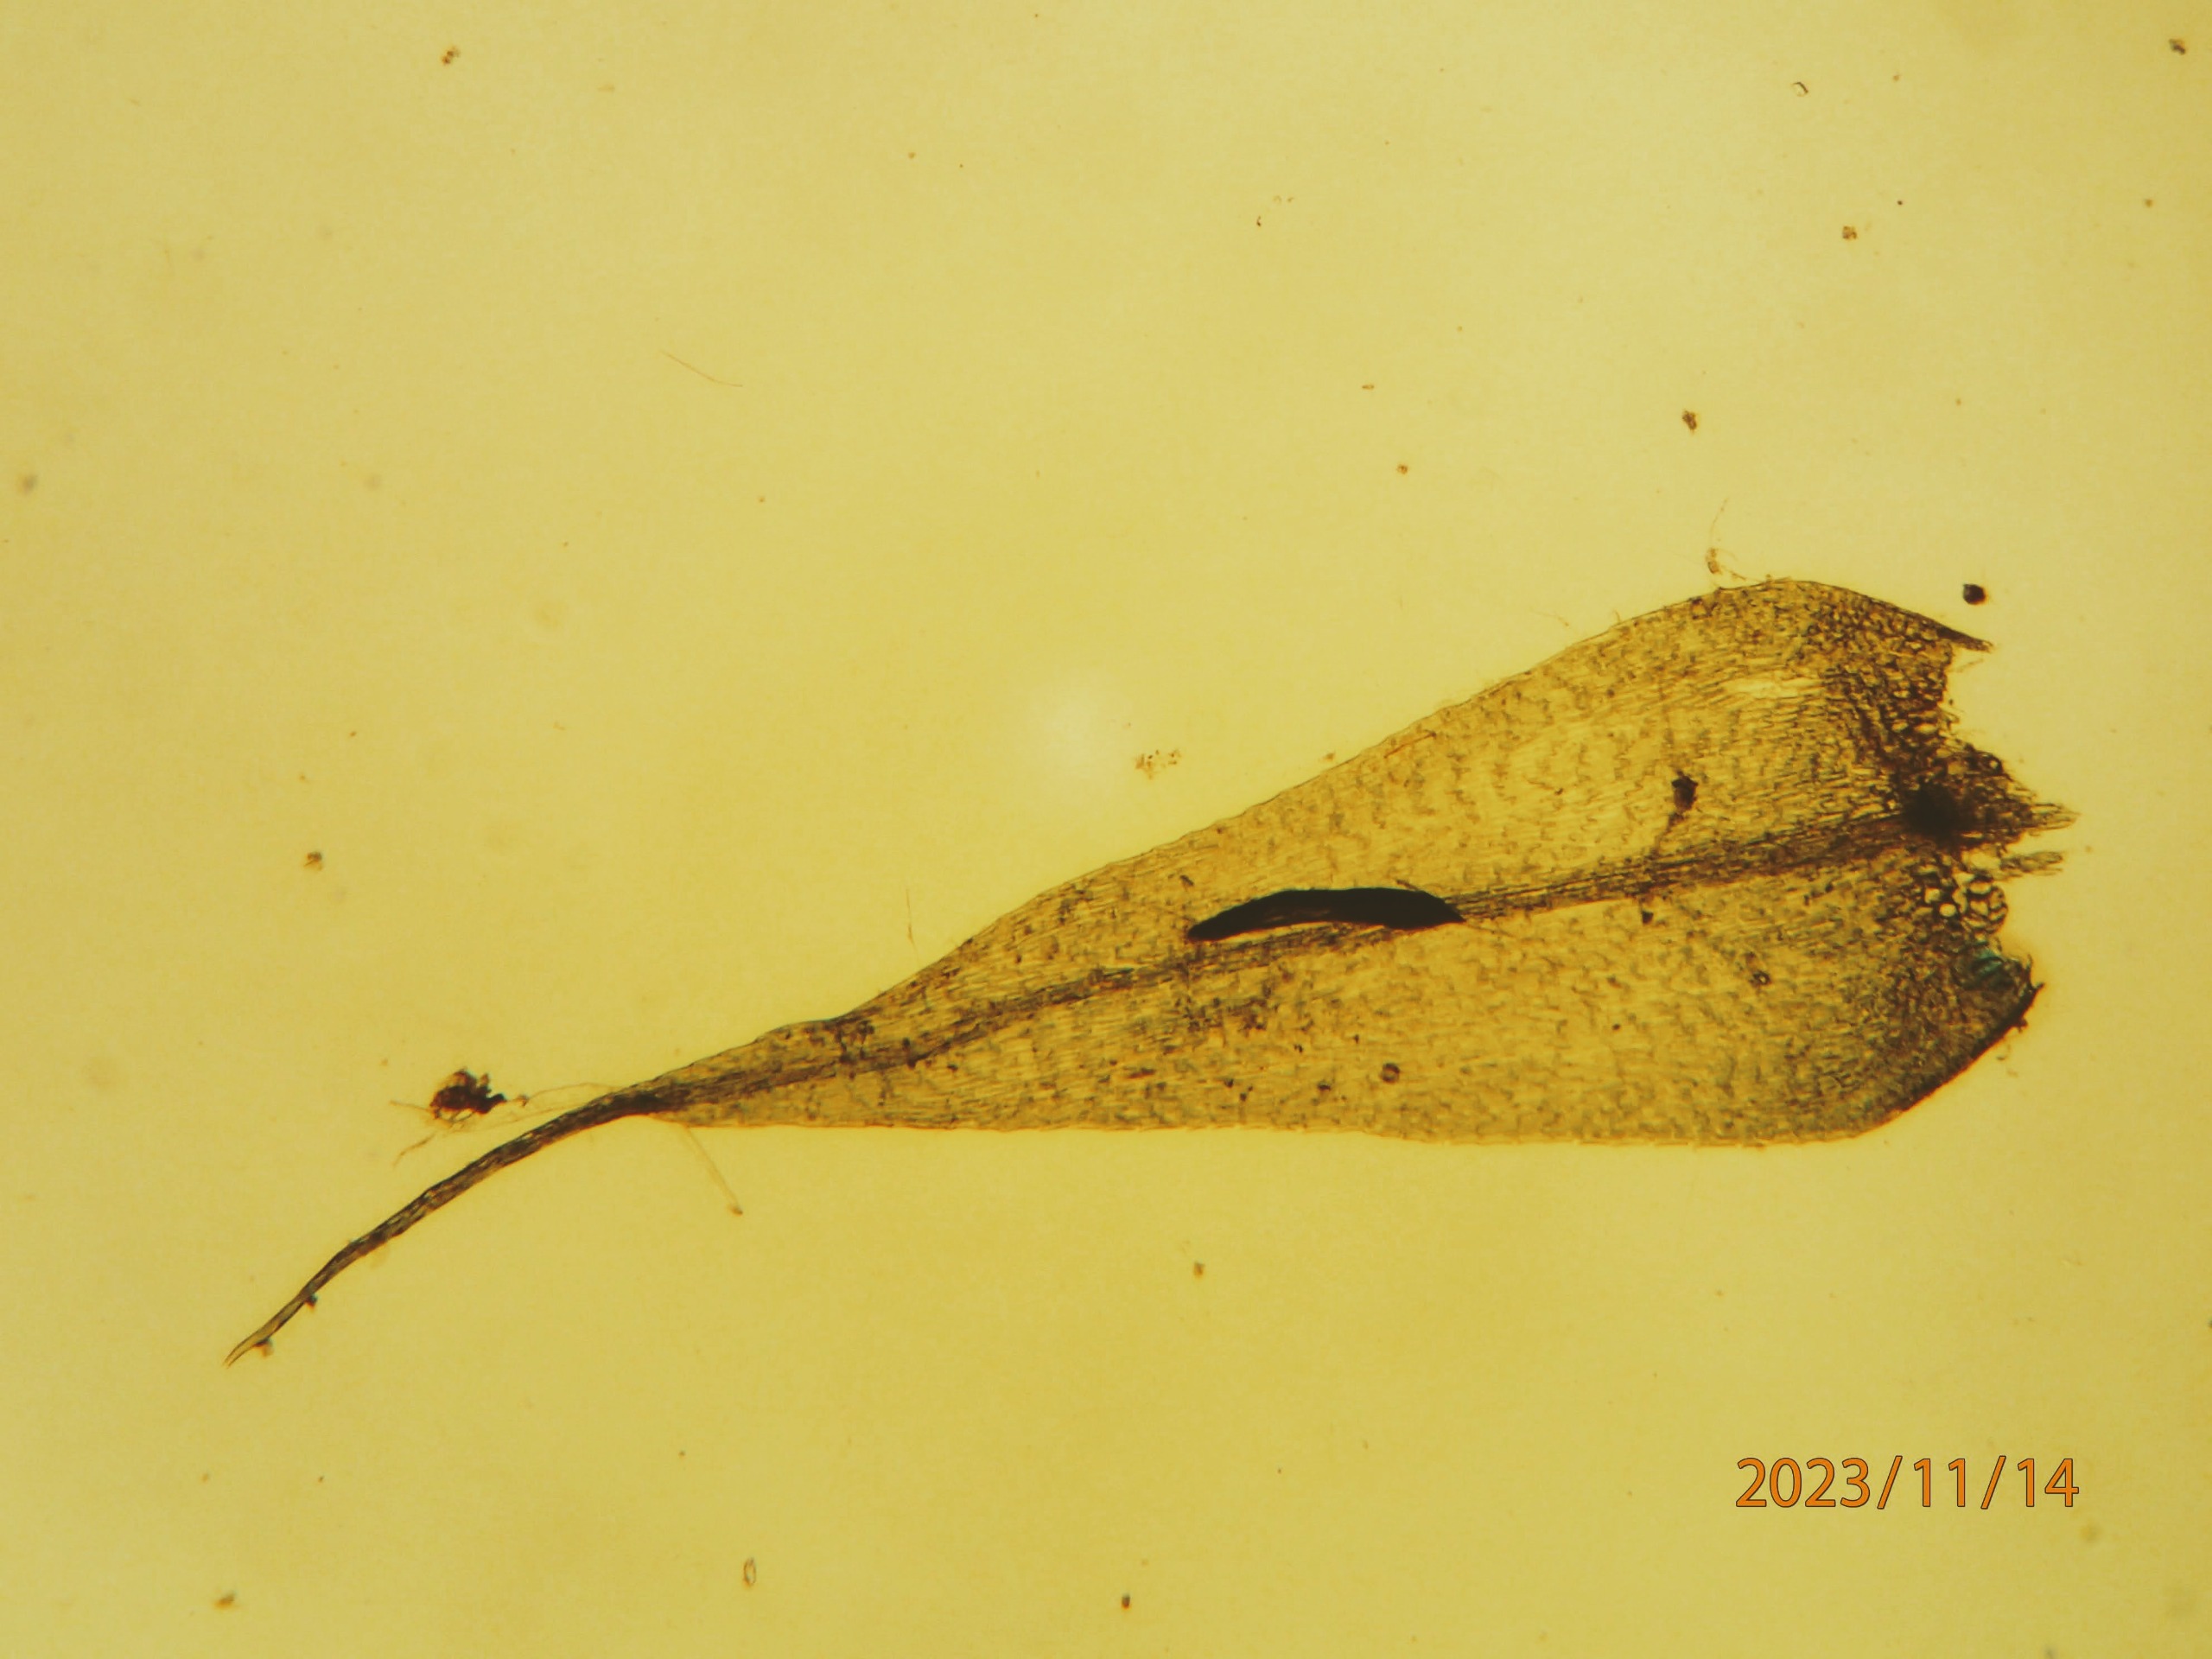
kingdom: Plantae
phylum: Bryophyta
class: Bryopsida
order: Hypnales
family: Brachytheciaceae
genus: Sciuro-hypnum
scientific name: Sciuro-hypnum populeum
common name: Park-kortkapsel
